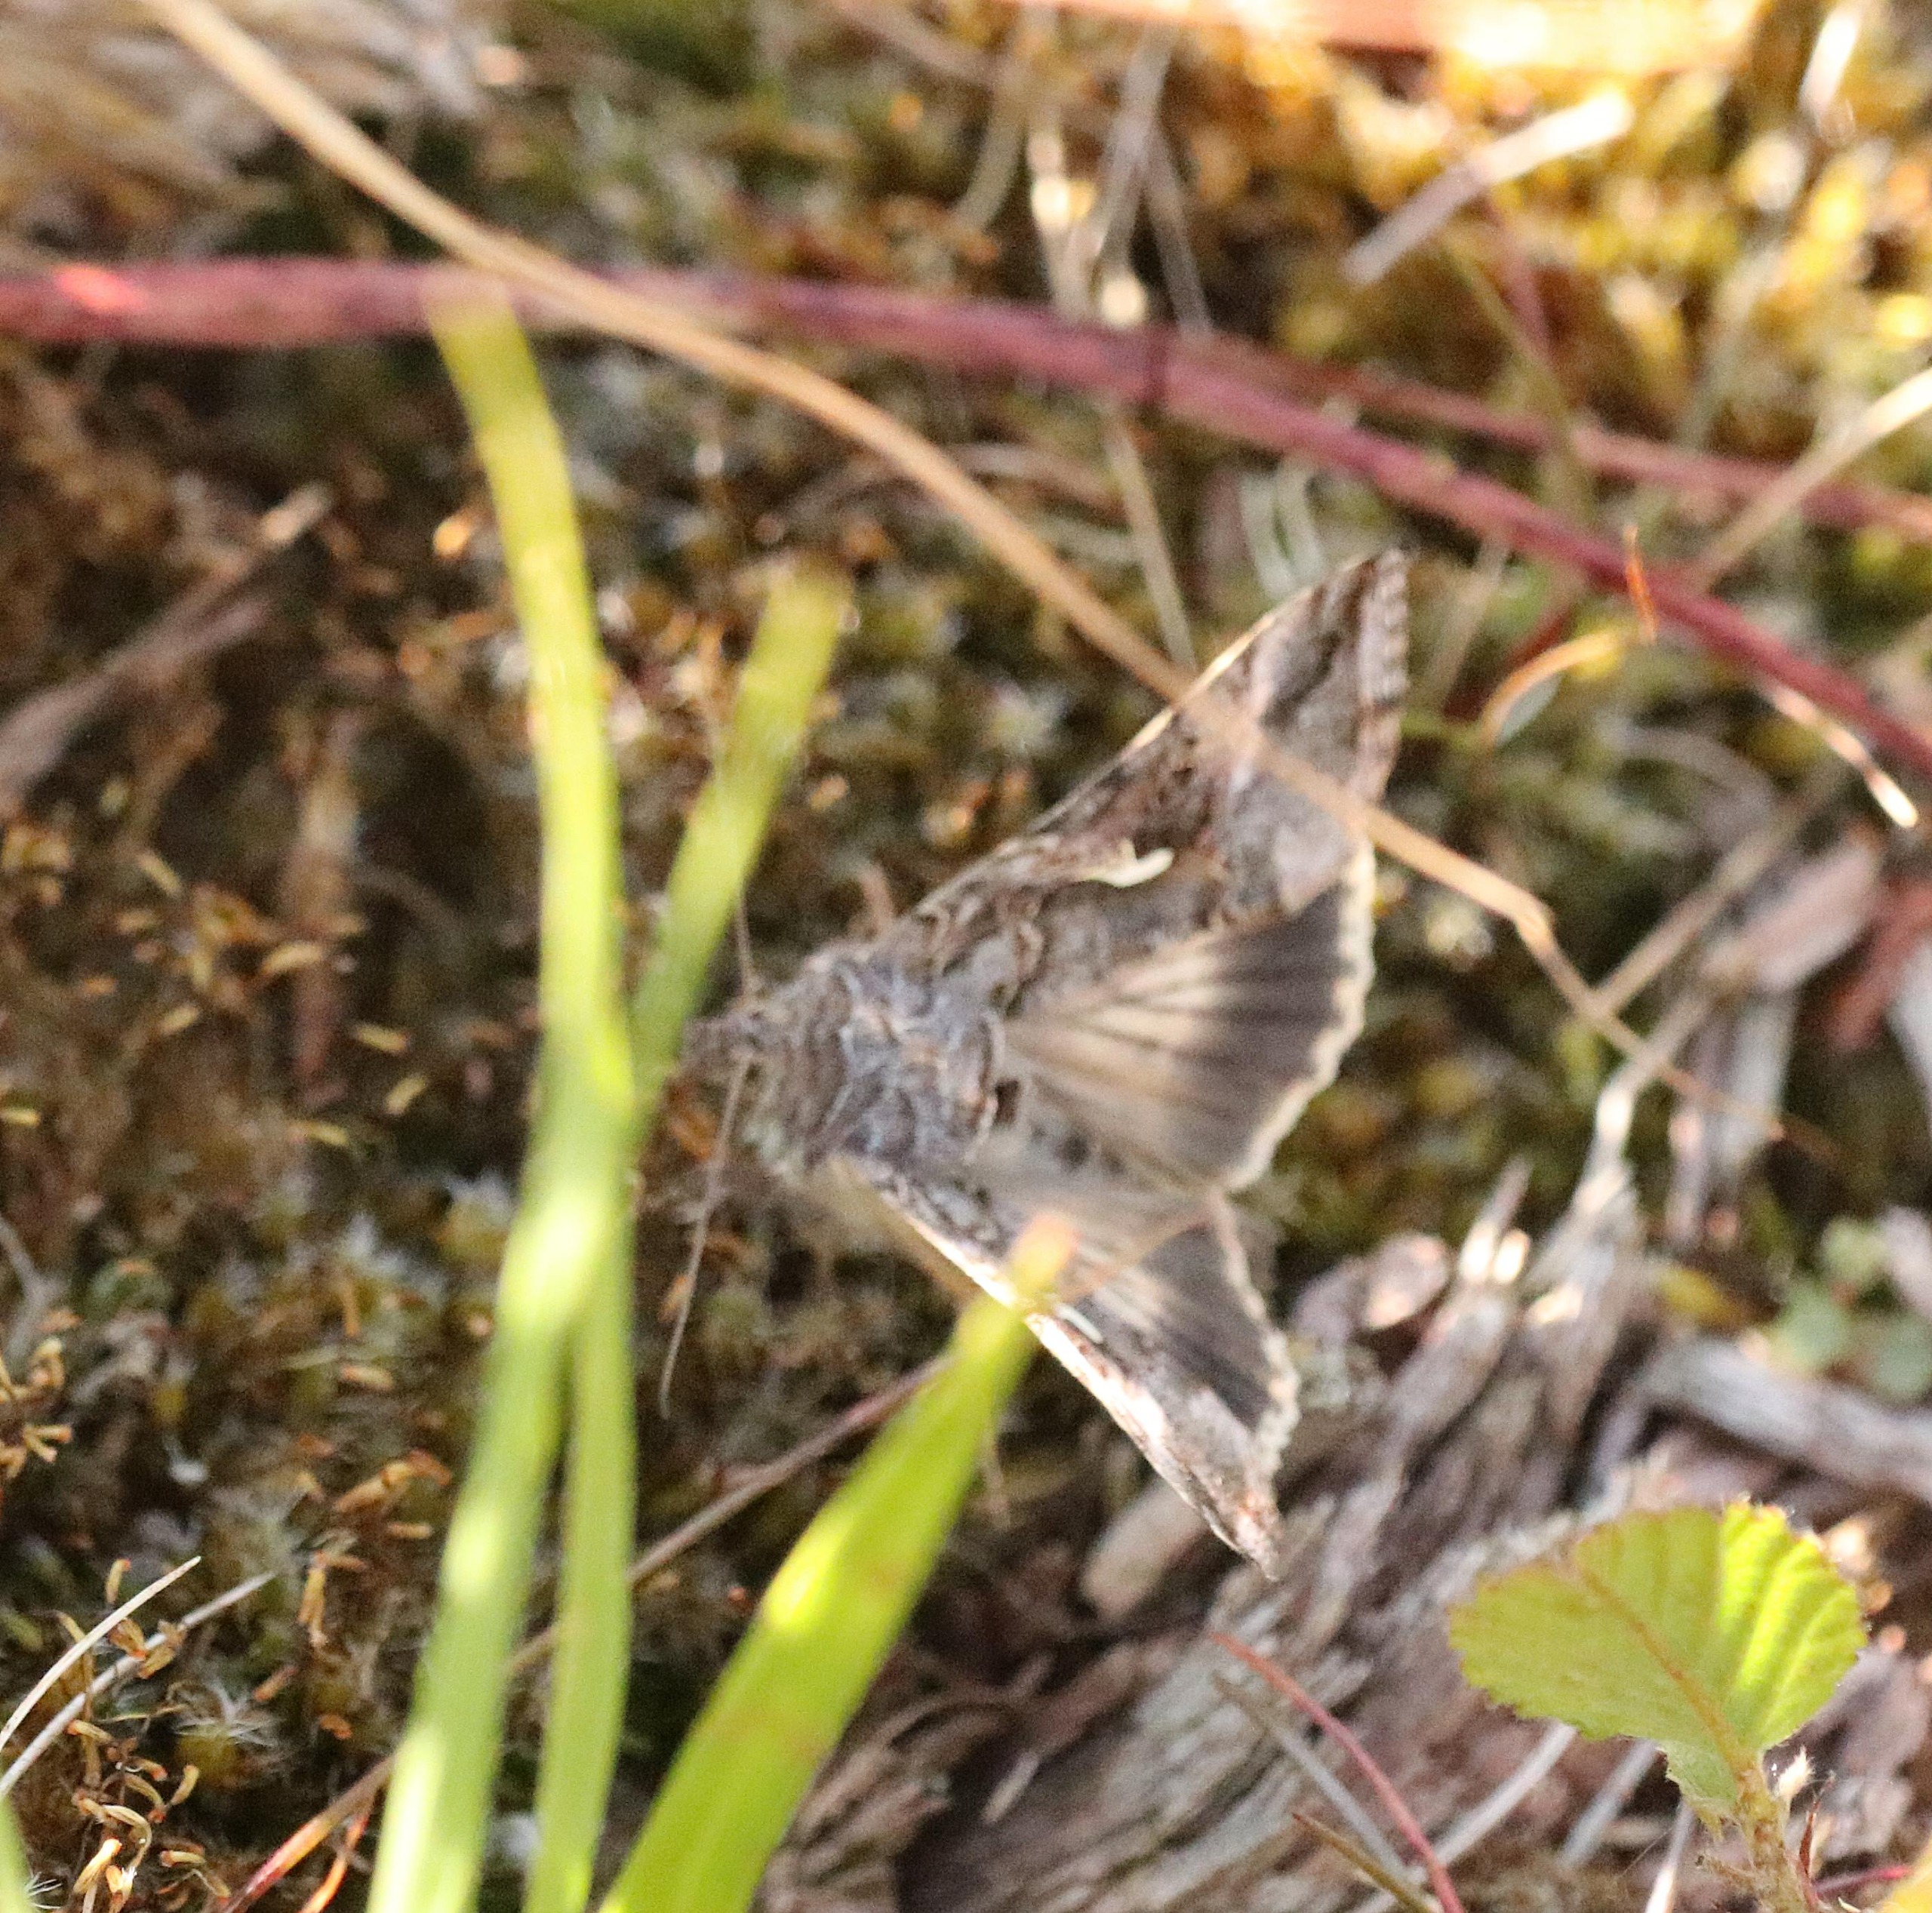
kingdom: Animalia
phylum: Arthropoda
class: Insecta
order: Lepidoptera
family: Noctuidae
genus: Autographa
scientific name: Autographa gamma
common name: Gammaugle
